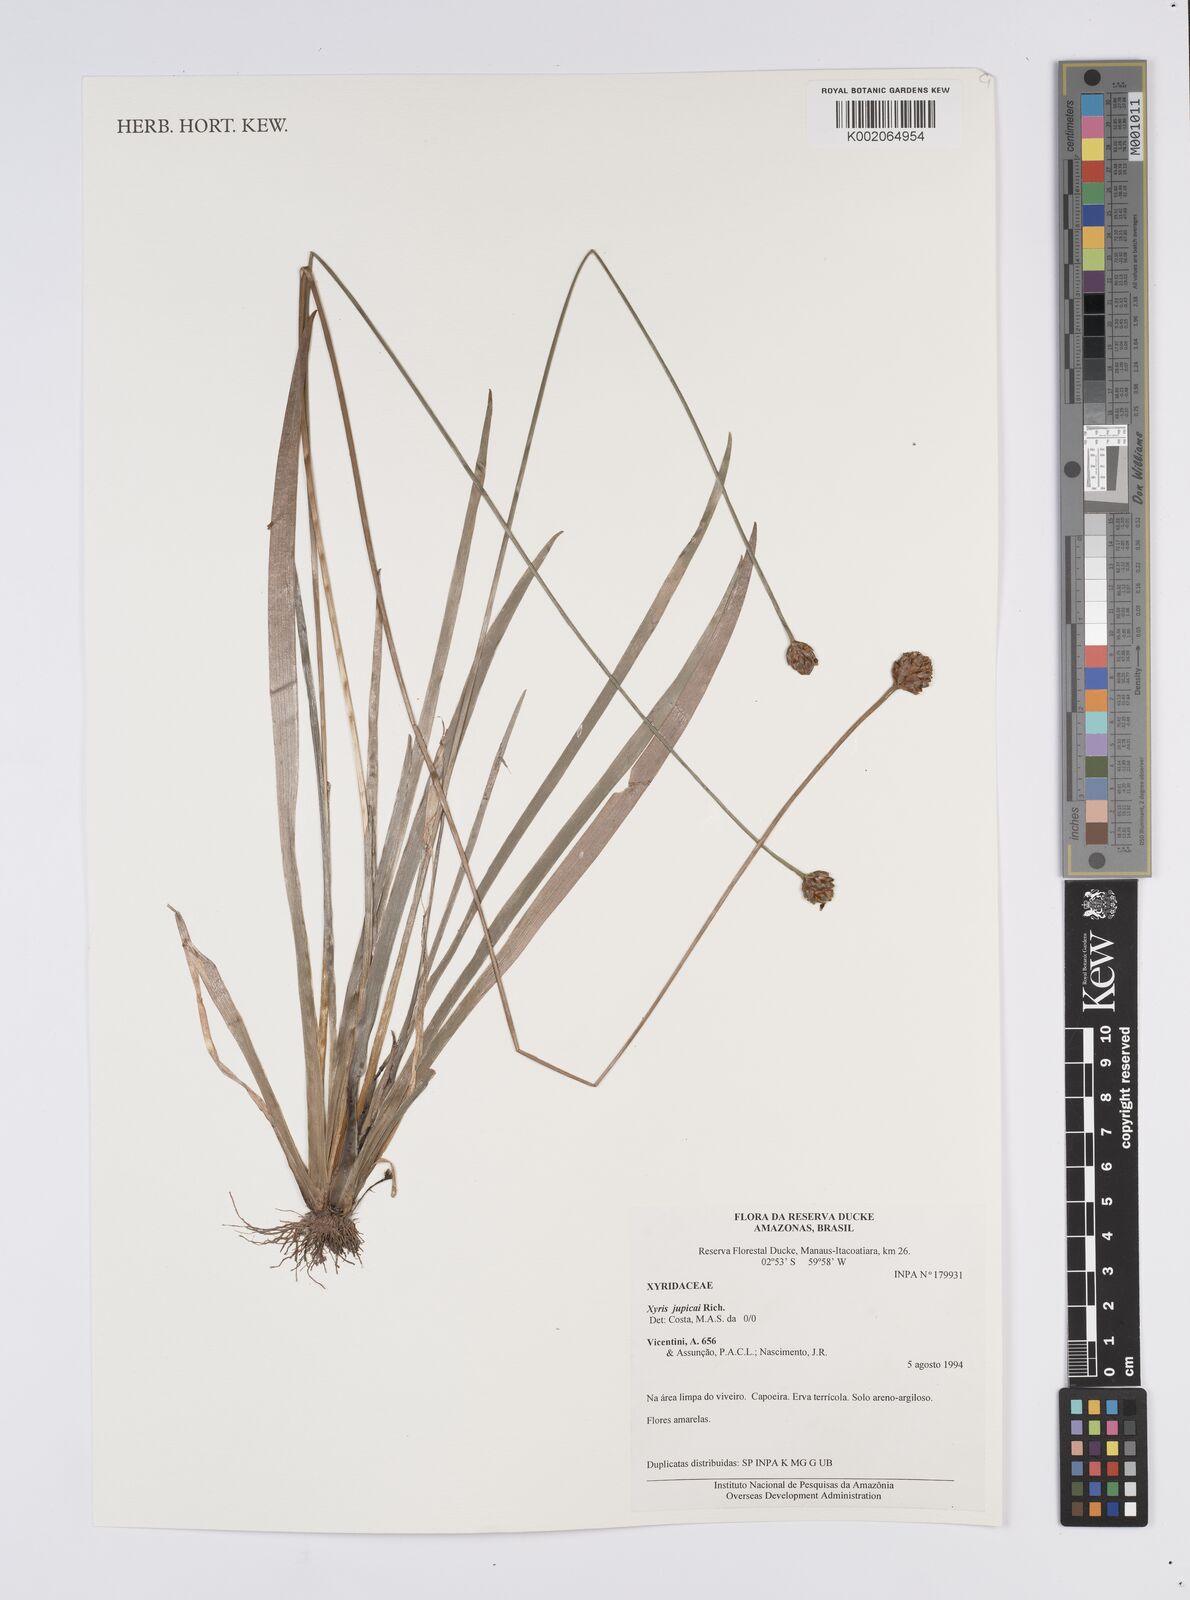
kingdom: Plantae
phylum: Tracheophyta
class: Liliopsida
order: Poales
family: Xyridaceae
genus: Xyris
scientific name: Xyris jupicai
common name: Richard's yelloweyed grass
